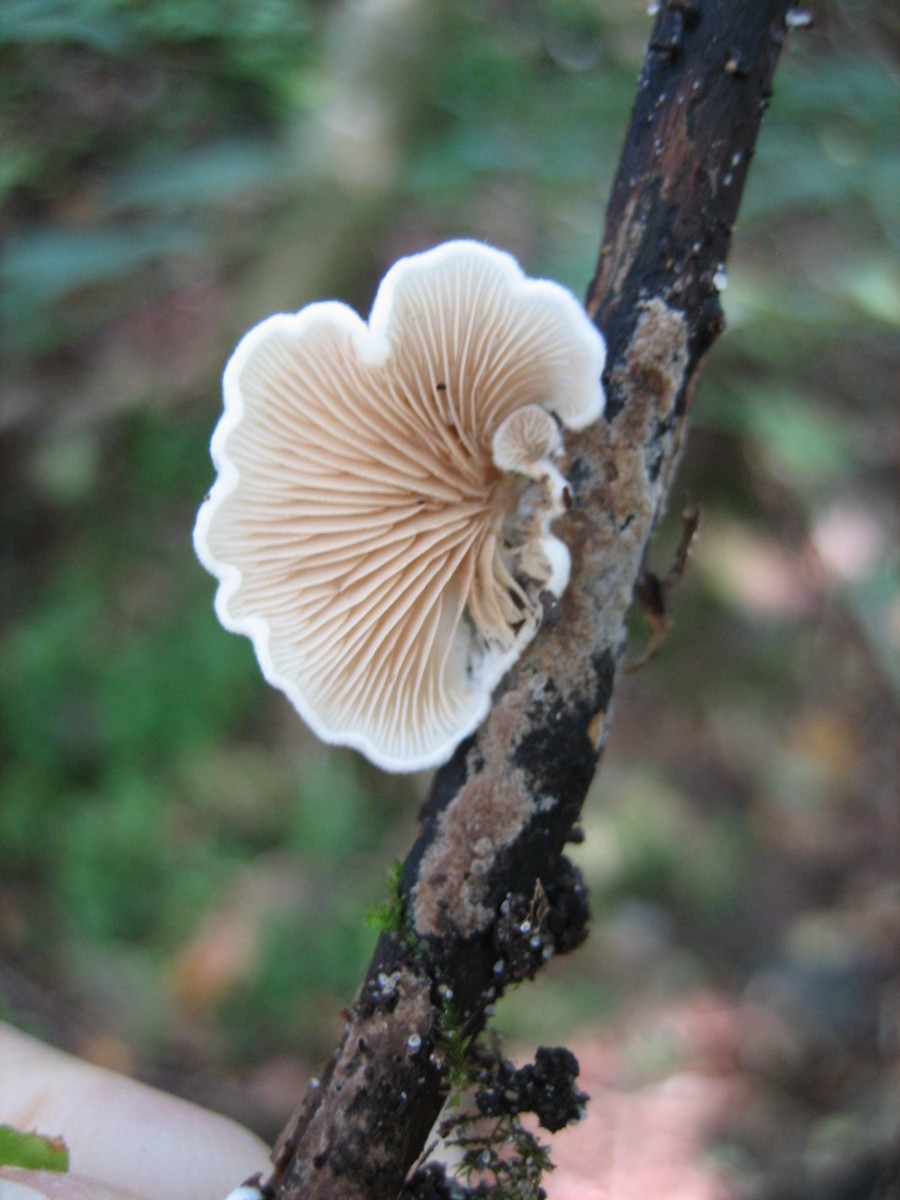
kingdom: Fungi
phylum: Basidiomycota
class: Agaricomycetes
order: Agaricales
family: Crepidotaceae
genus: Crepidotus
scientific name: Crepidotus
